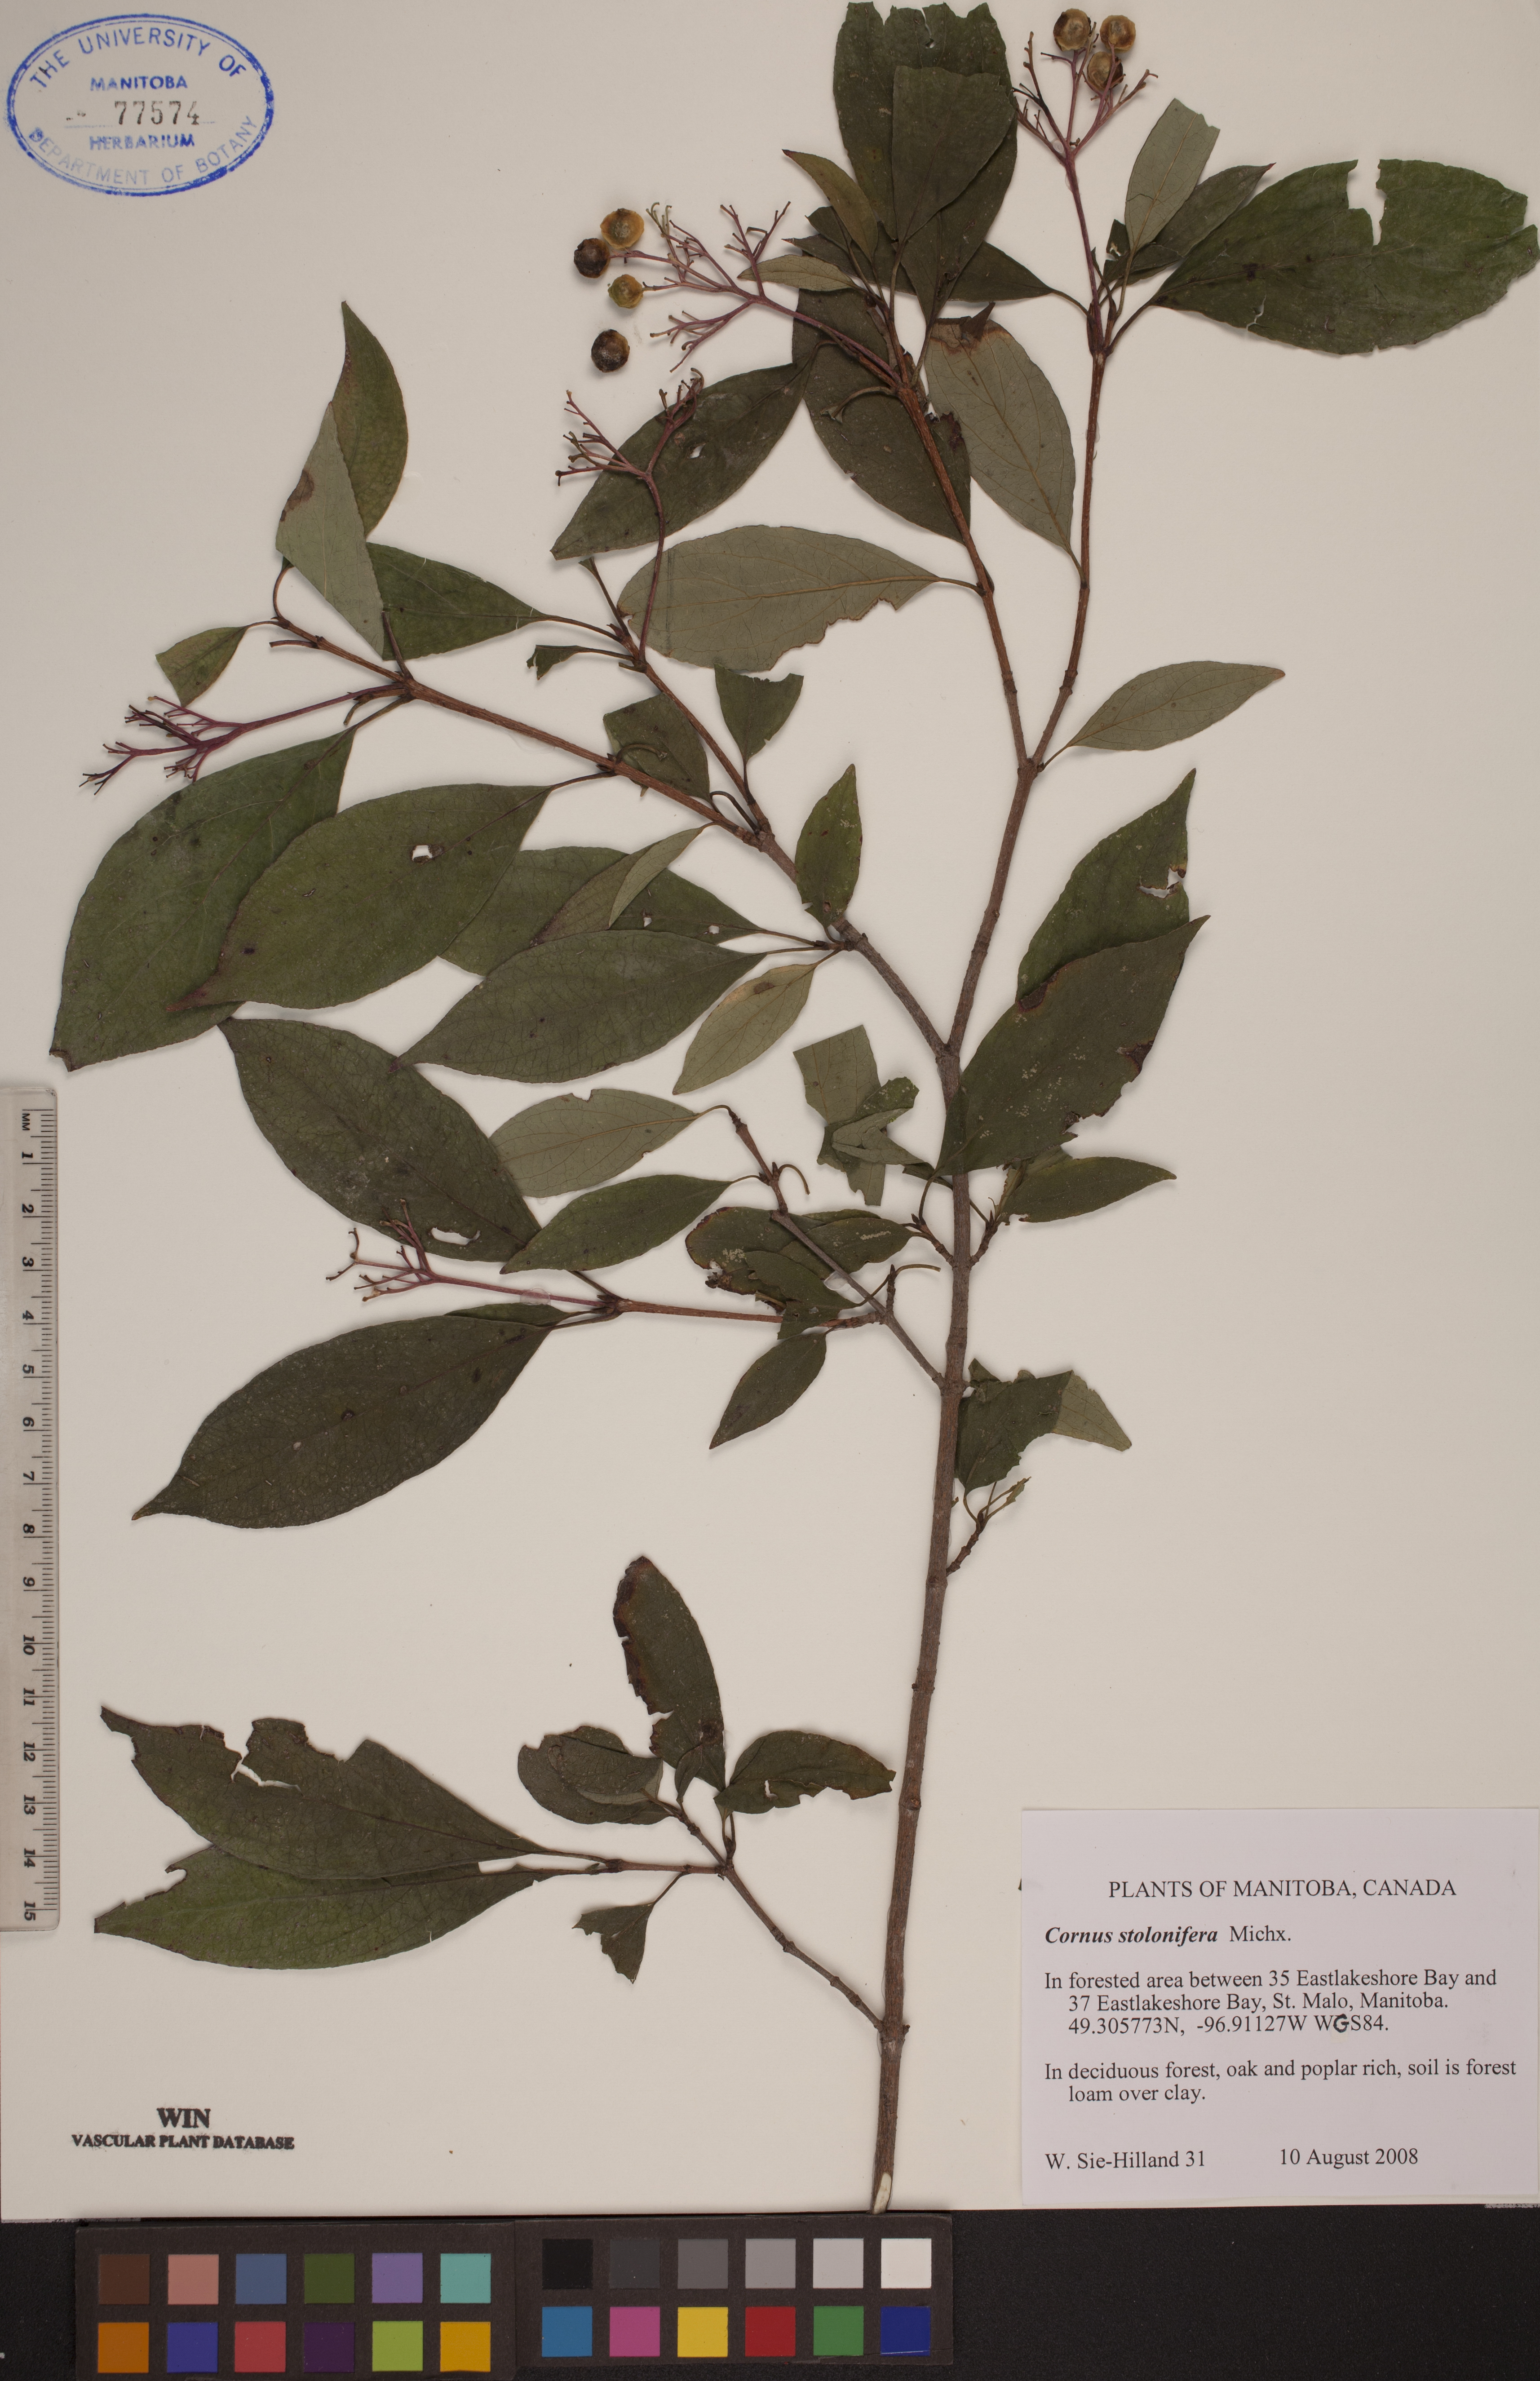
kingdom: Plantae
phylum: Tracheophyta
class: Magnoliopsida
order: Cornales
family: Cornaceae
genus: Cornus
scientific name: Cornus sericea
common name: Red-osier dogwood
